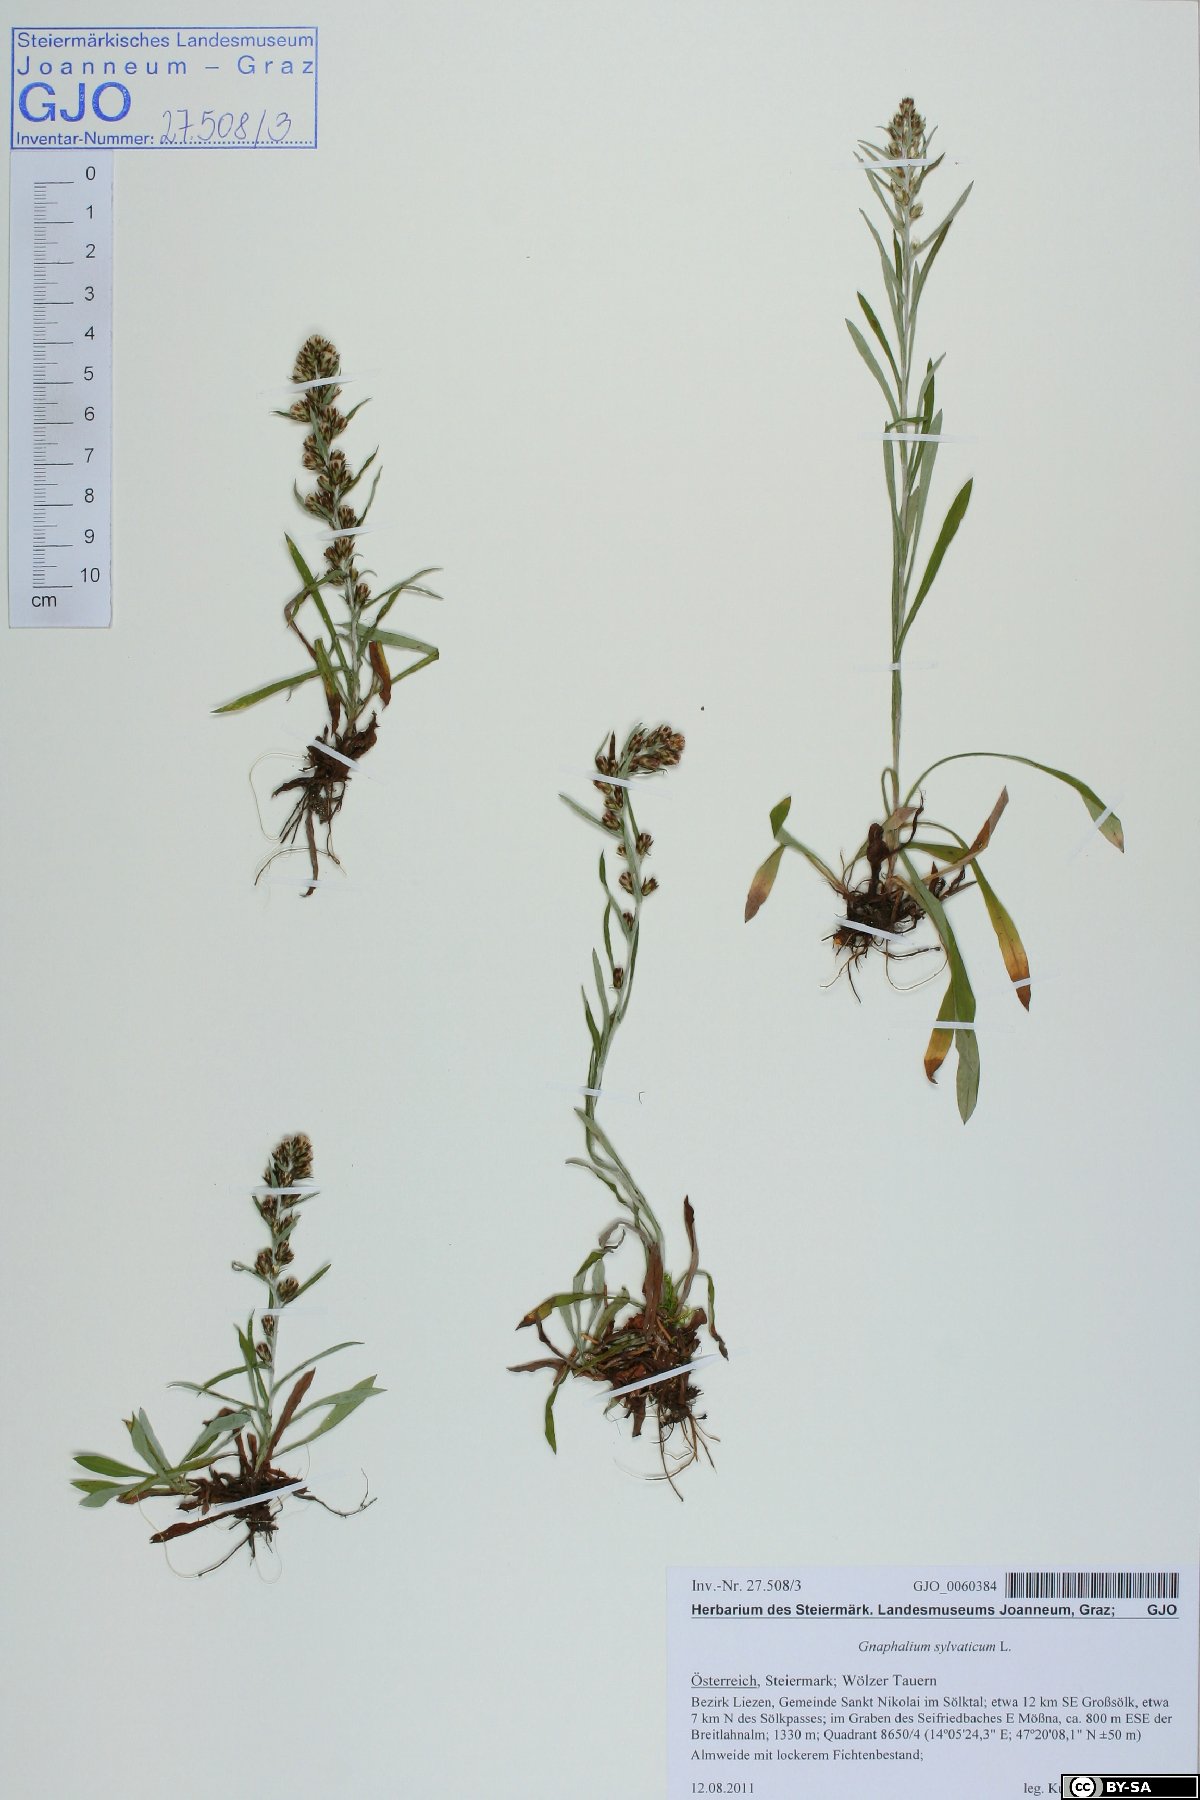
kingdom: Plantae
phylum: Tracheophyta
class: Magnoliopsida
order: Asterales
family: Asteraceae
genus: Omalotheca
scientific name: Omalotheca sylvatica
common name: Heath cudweed
